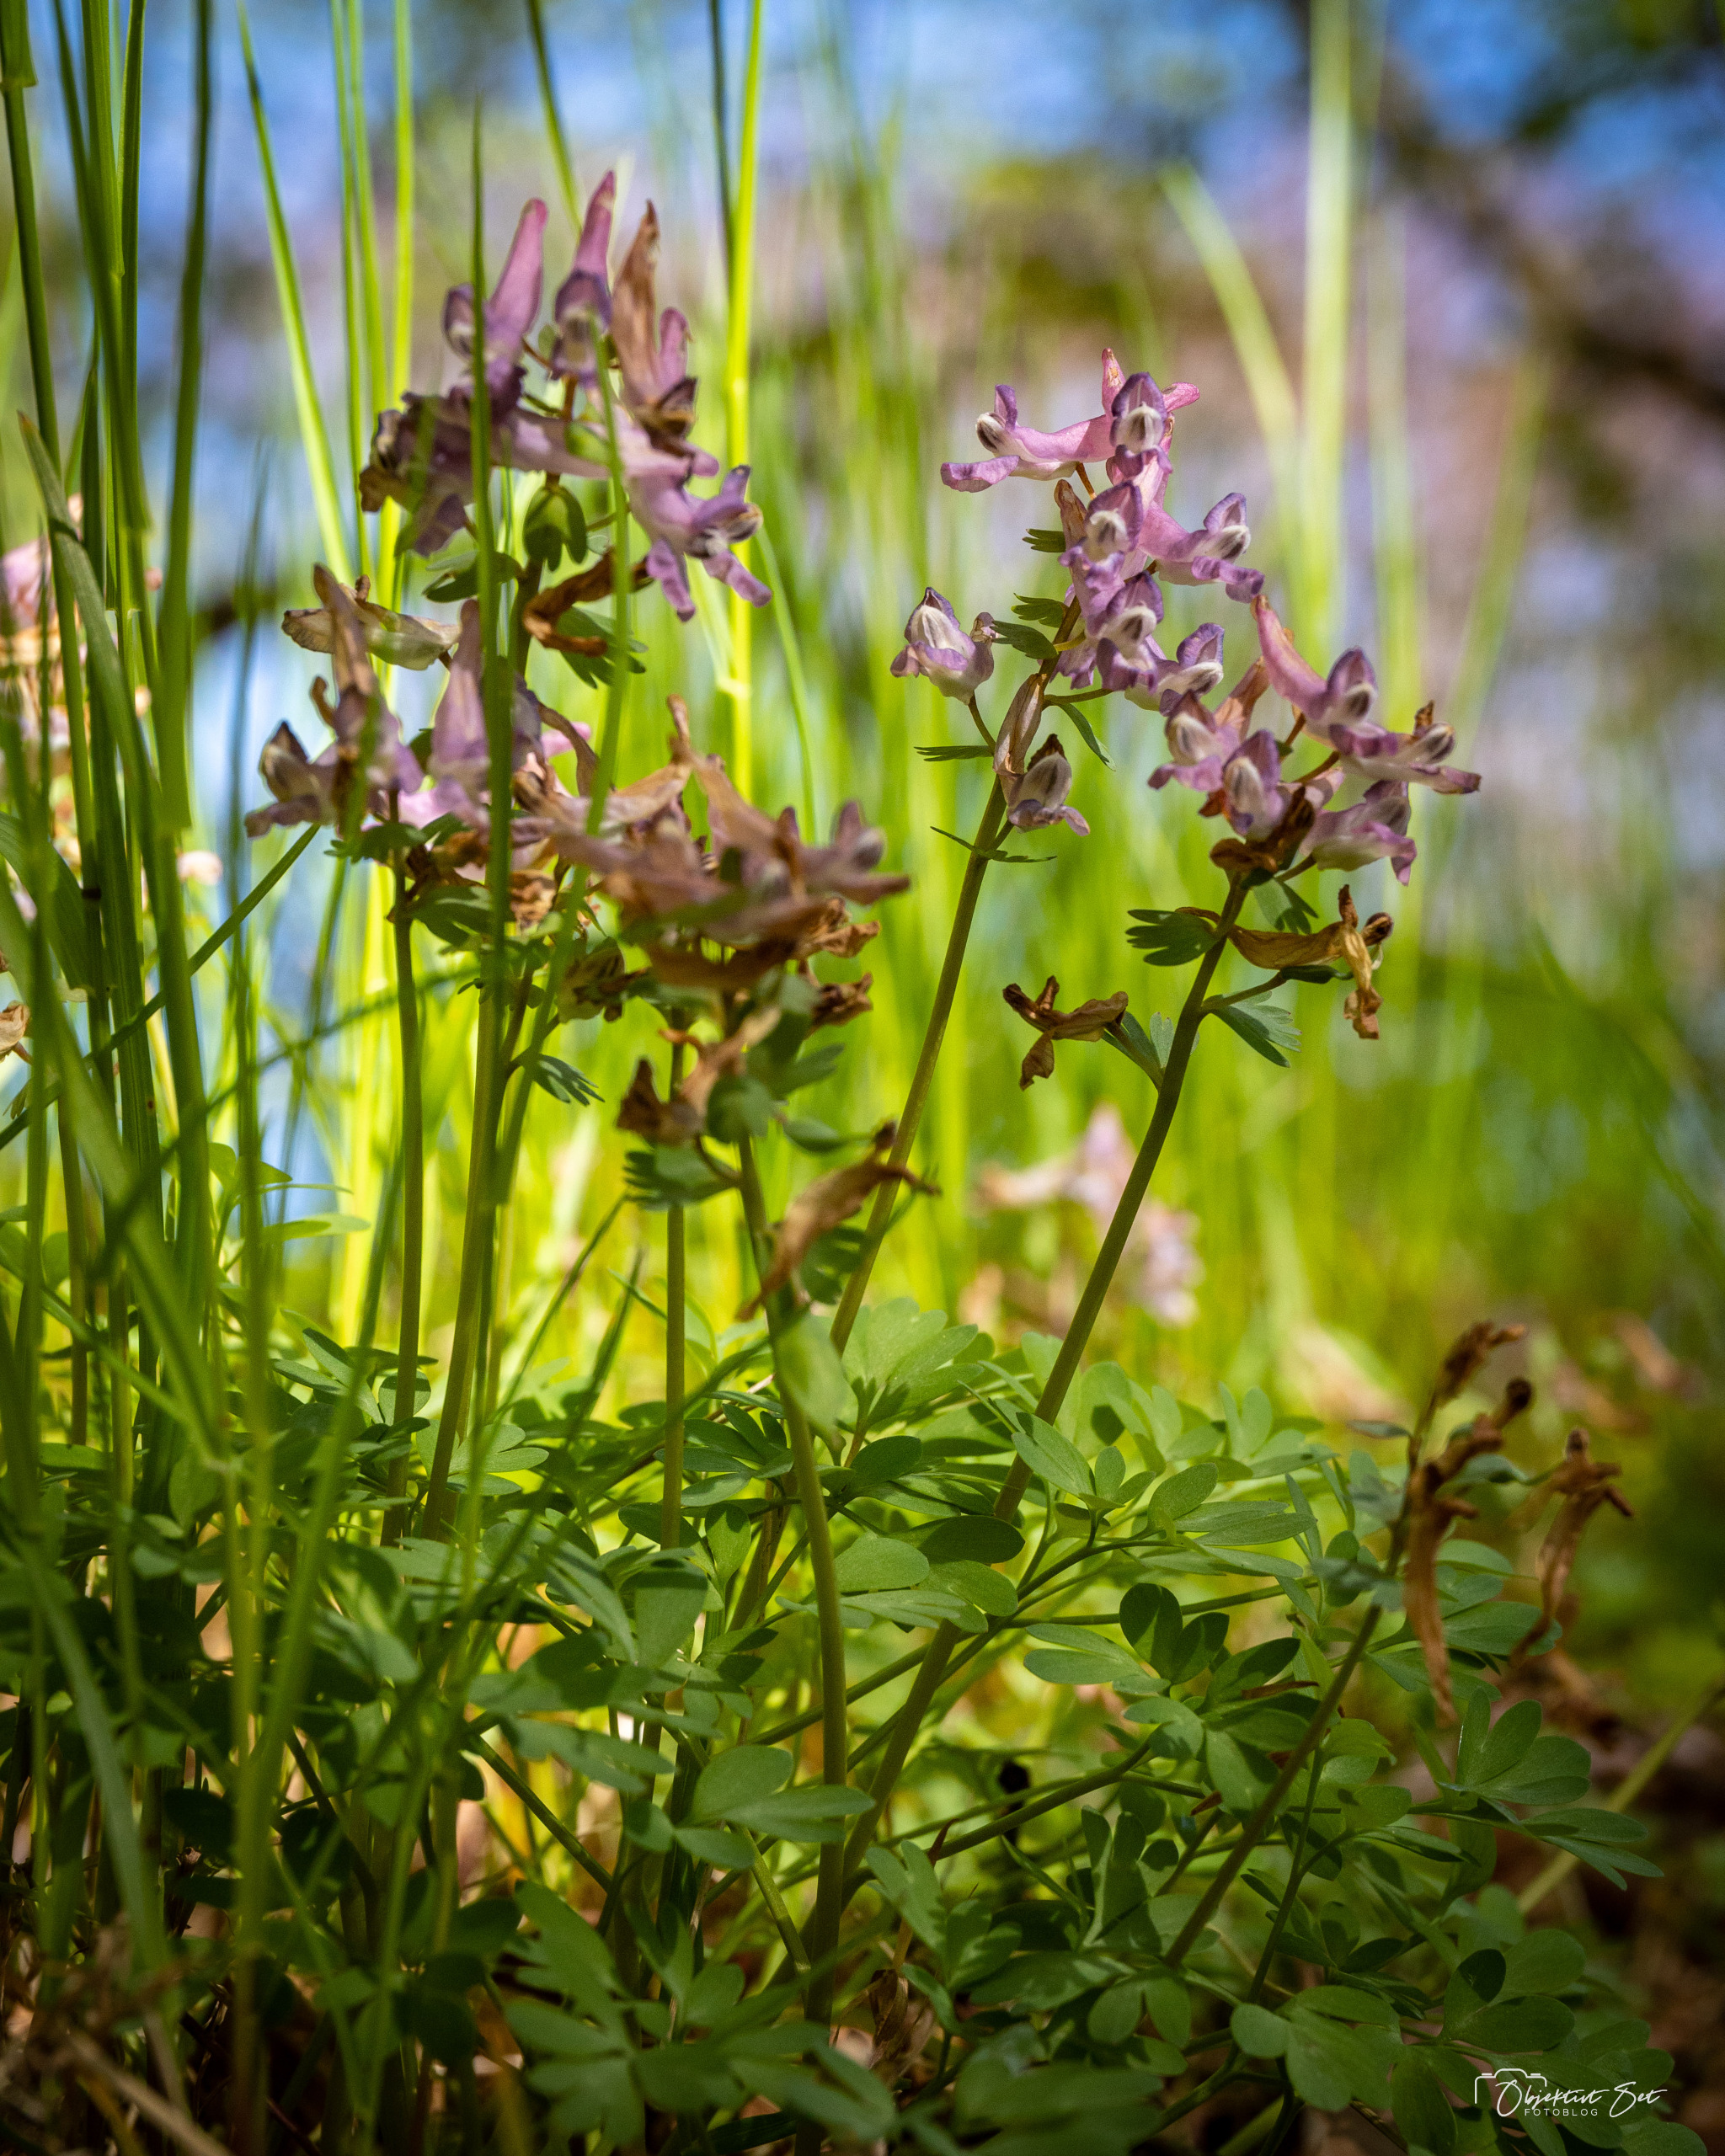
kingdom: Plantae
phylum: Tracheophyta
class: Magnoliopsida
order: Ranunculales
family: Papaveraceae
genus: Corydalis
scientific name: Corydalis solida
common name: Langstilket lærkespore
